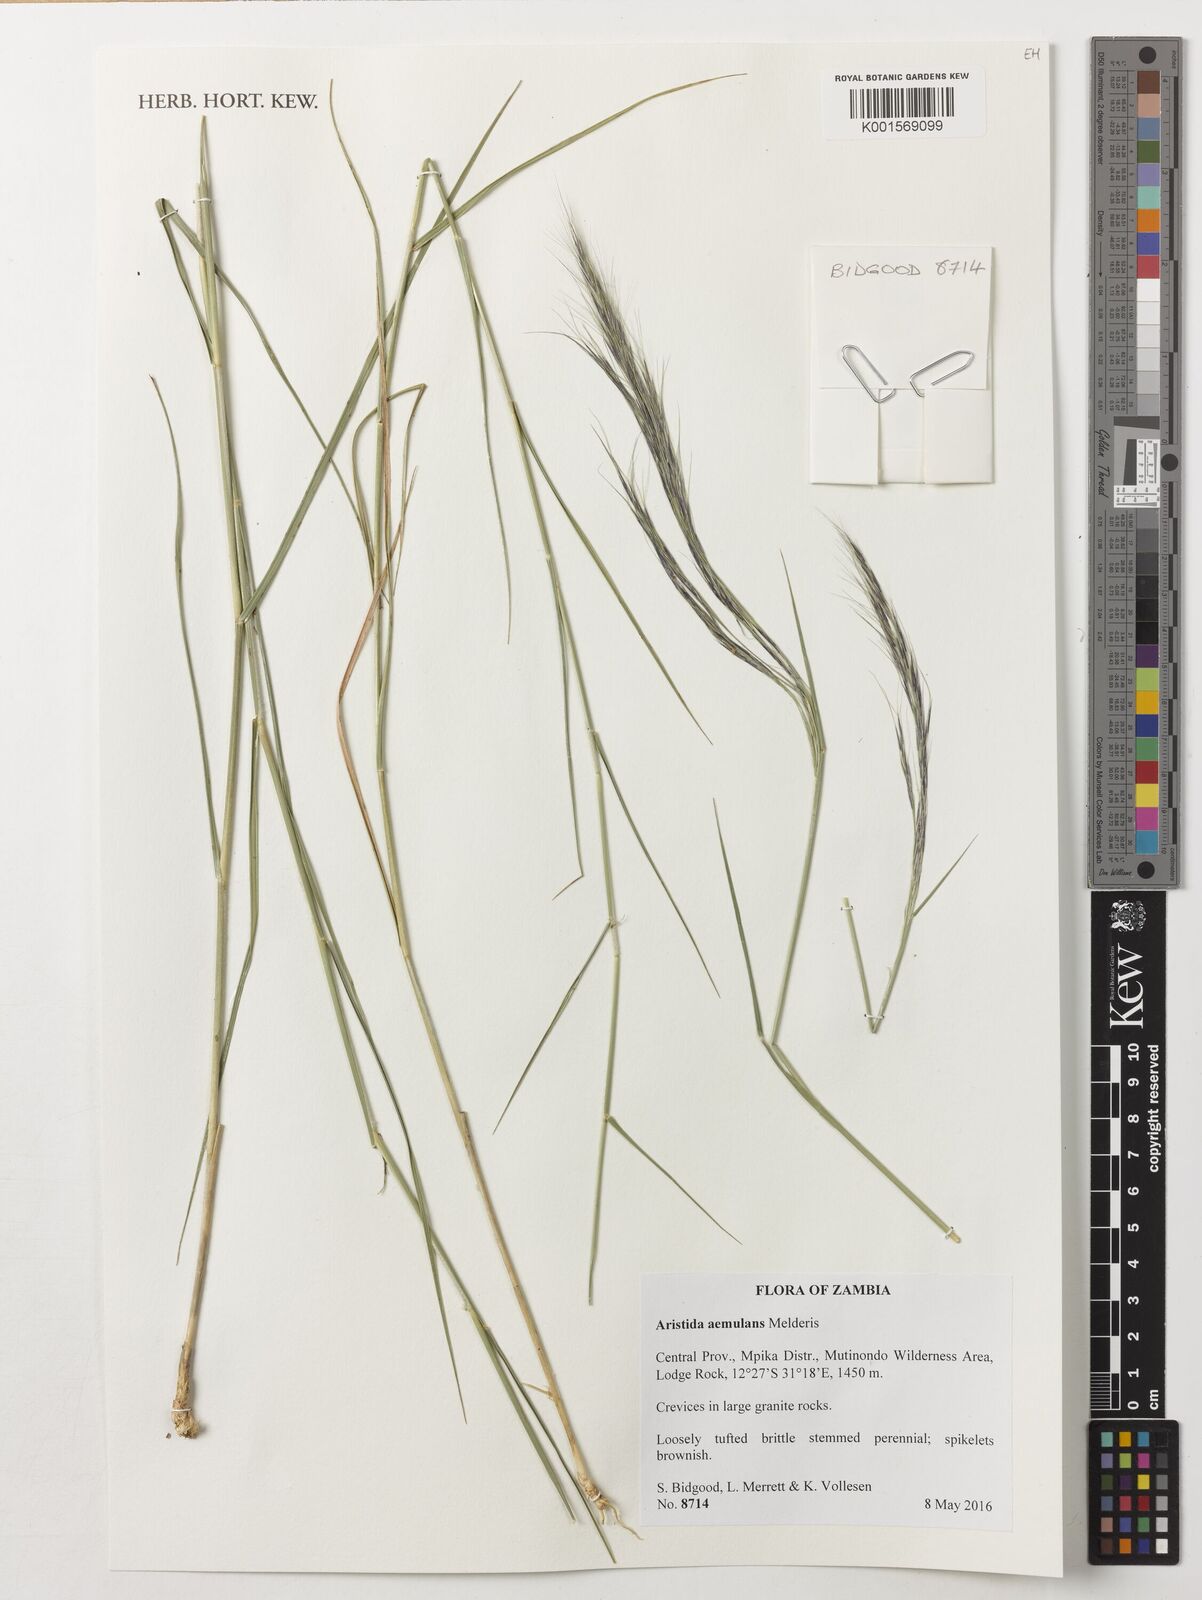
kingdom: Plantae
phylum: Tracheophyta
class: Liliopsida
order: Poales
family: Poaceae
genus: Aristida
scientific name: Aristida aemulans
